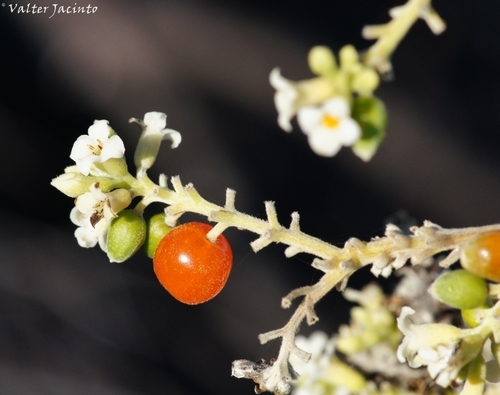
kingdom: Plantae
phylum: Tracheophyta
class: Magnoliopsida
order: Malvales
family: Thymelaeaceae
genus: Daphne
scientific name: Daphne gnidium
